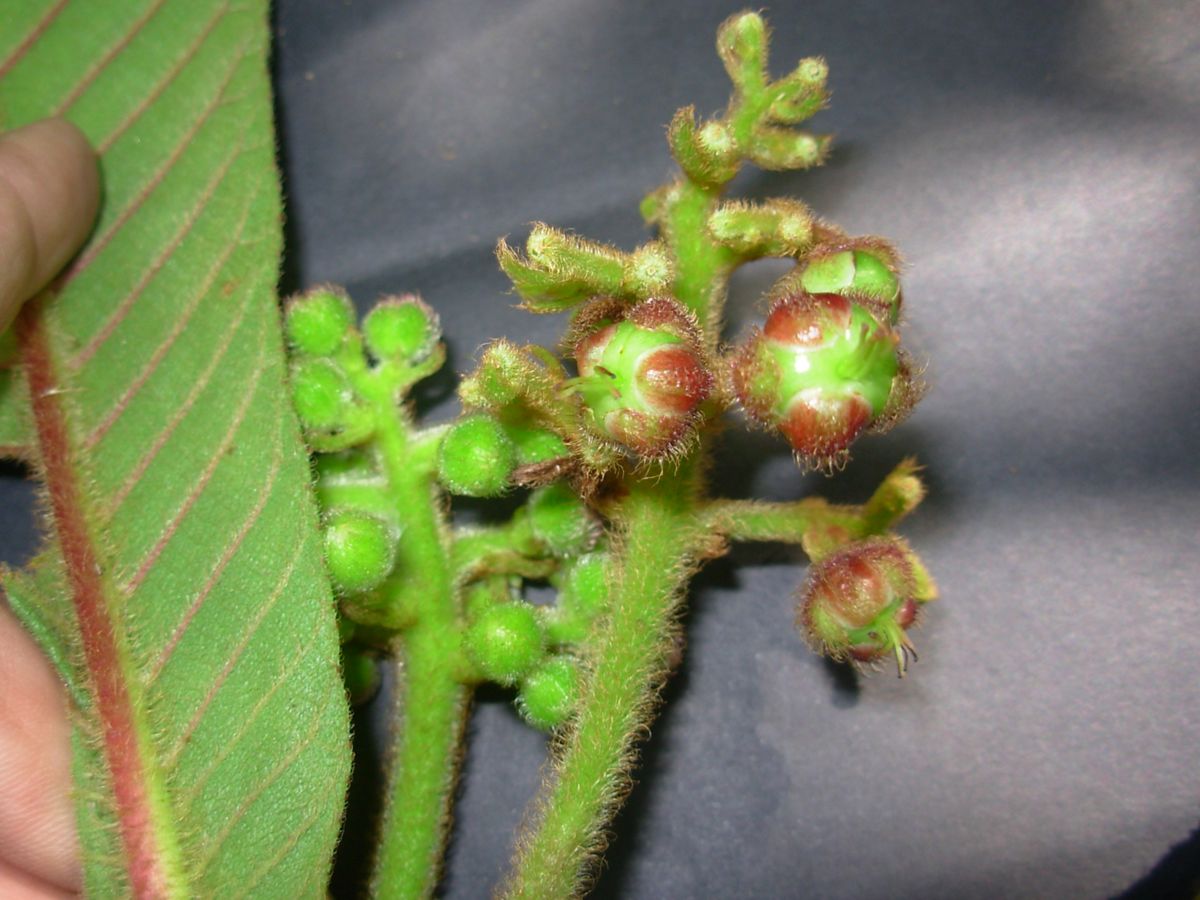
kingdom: Plantae
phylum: Tracheophyta
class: Magnoliopsida
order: Ericales
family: Actinidiaceae
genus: Saurauia
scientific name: Saurauia selerorum
